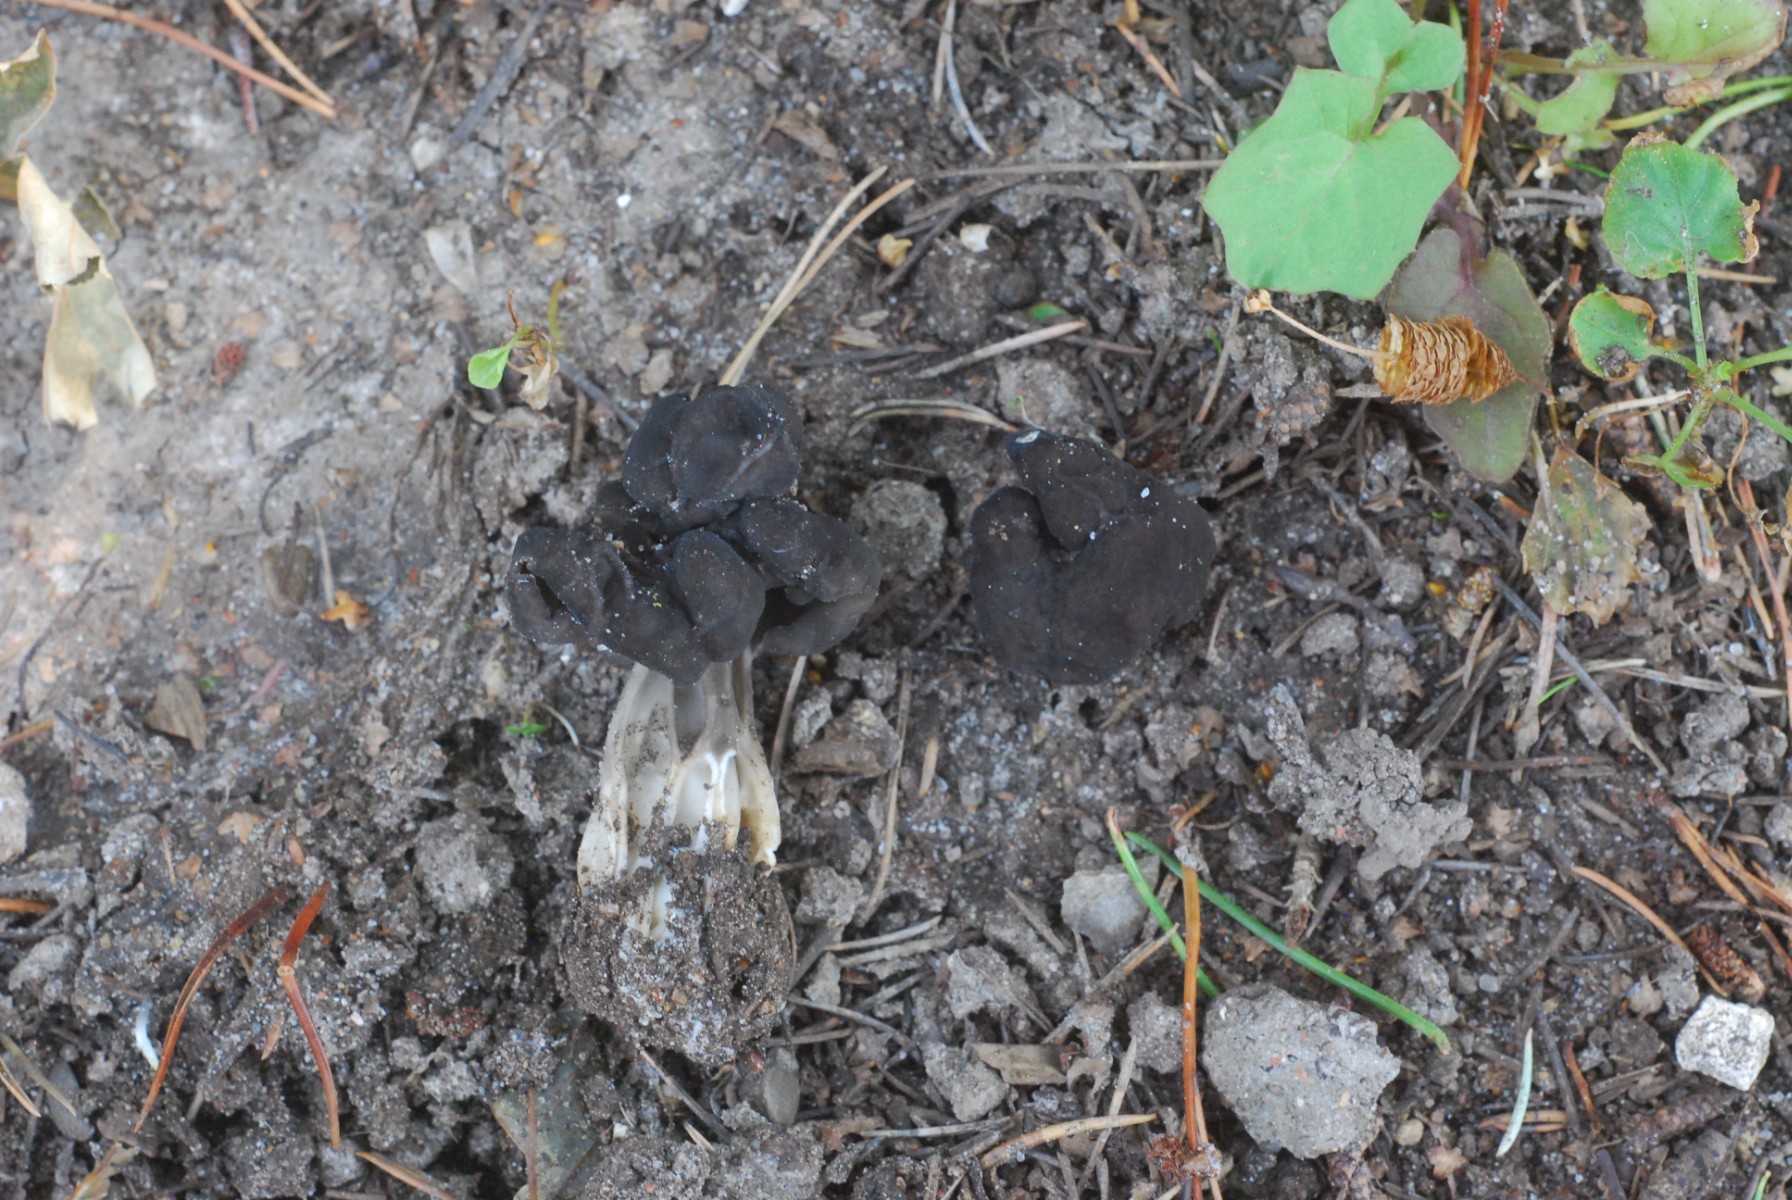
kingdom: Fungi
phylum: Ascomycota
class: Pezizomycetes
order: Pezizales
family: Helvellaceae
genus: Helvella
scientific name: Helvella lacunosa
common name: grubet foldhat
